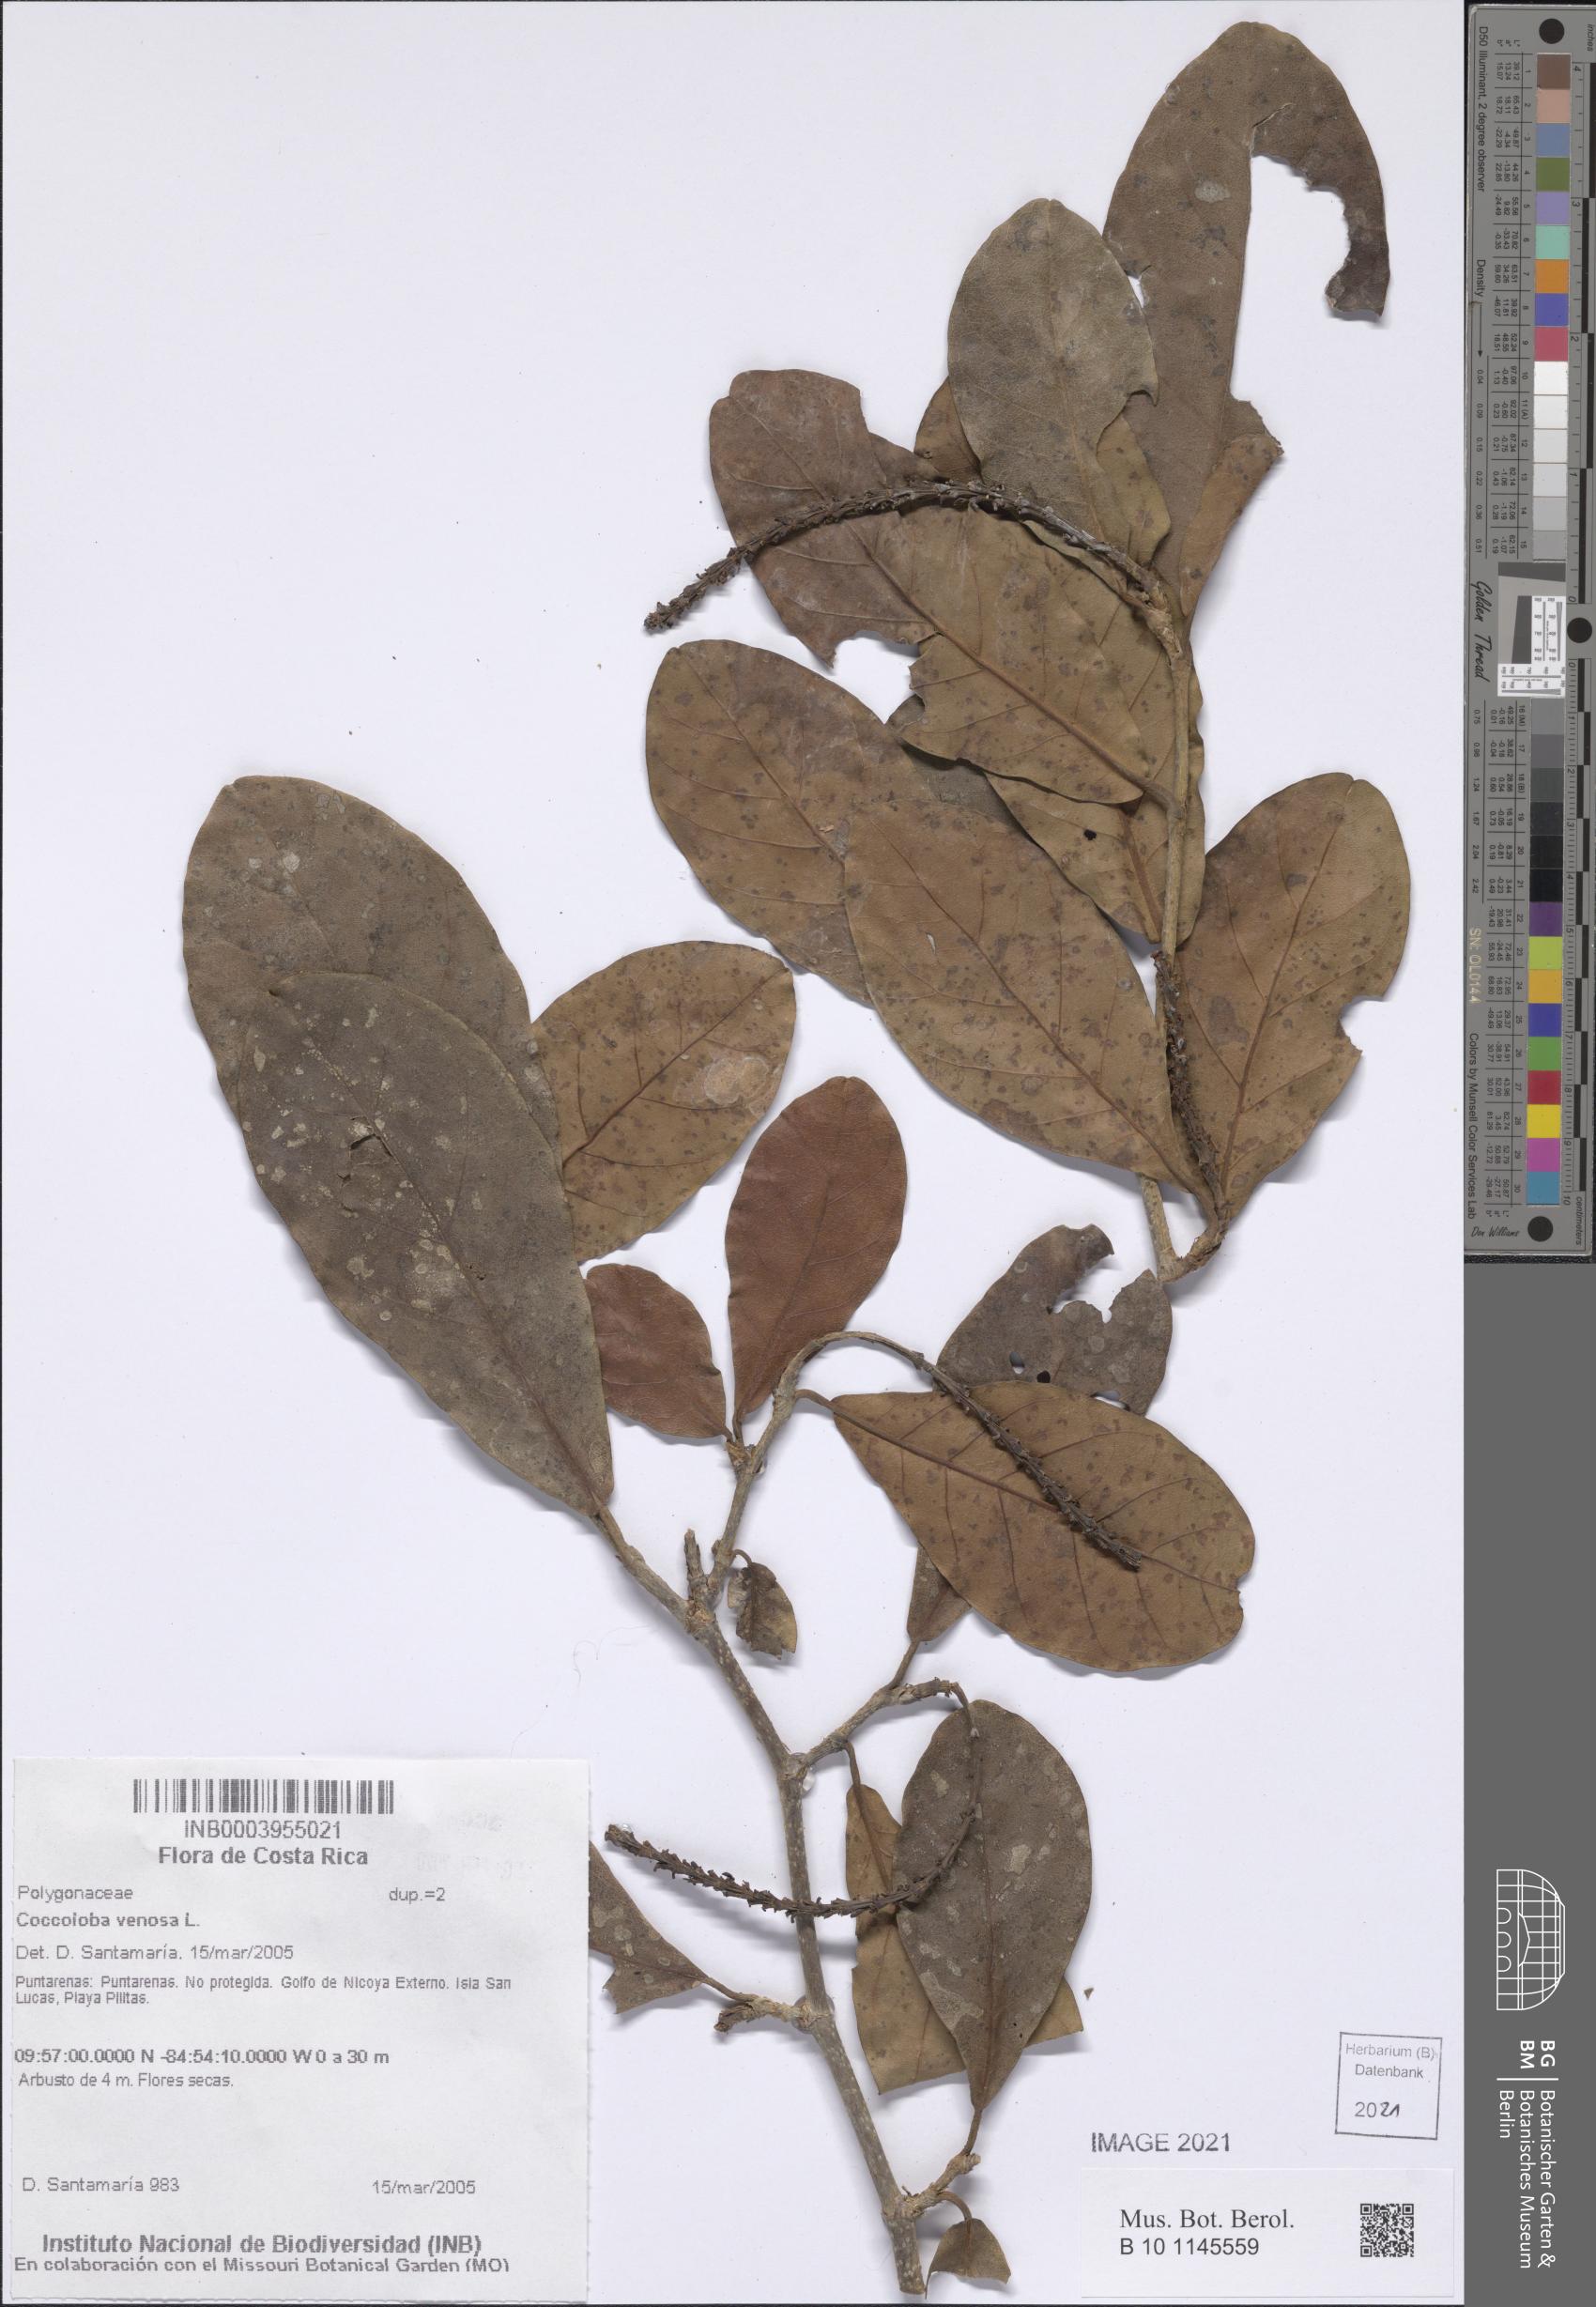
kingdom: Plantae
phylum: Tracheophyta
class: Magnoliopsida
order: Caryophyllales
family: Polygonaceae
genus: Coccoloba
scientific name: Coccoloba venosa
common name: Sugary grape
